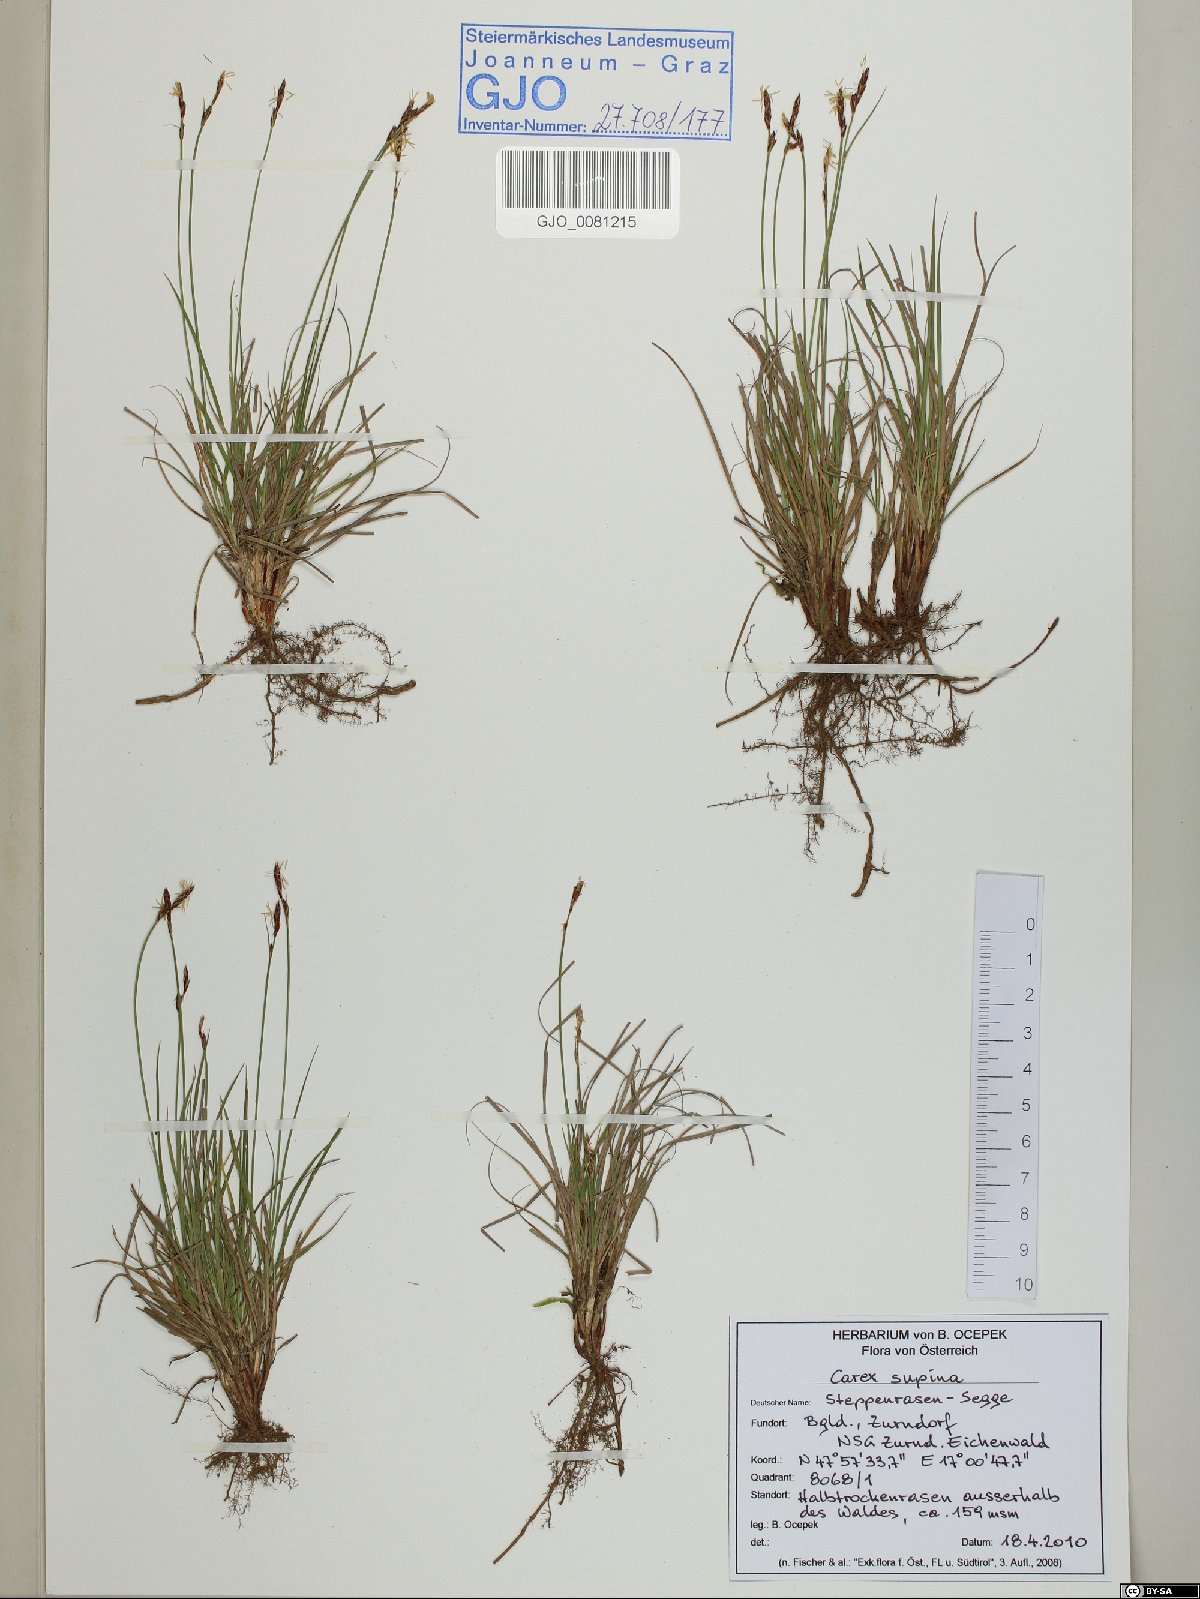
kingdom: Plantae
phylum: Tracheophyta
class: Liliopsida
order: Poales
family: Cyperaceae
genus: Carex
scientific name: Carex supina
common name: Lying-back sedge
